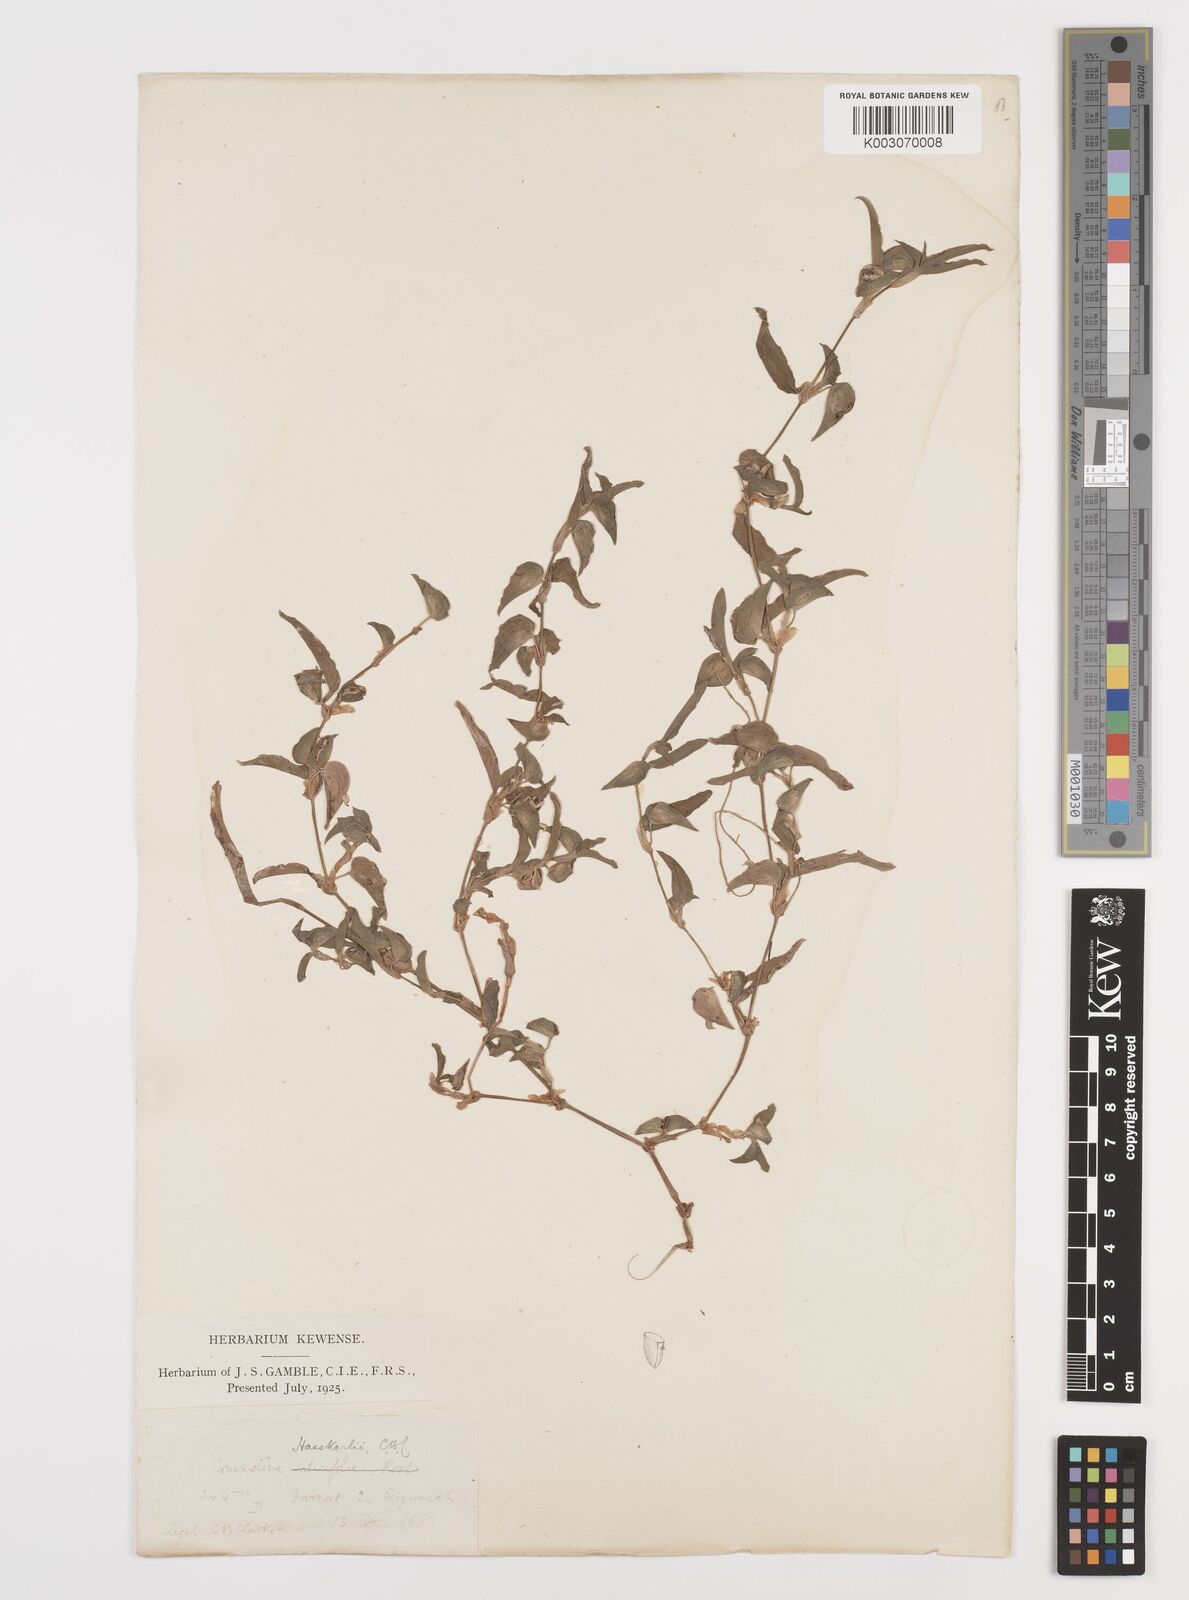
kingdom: Plantae
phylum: Tracheophyta
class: Liliopsida
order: Commelinales
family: Commelinaceae
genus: Commelina
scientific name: Commelina caroliniana
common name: Carolina dayflower
